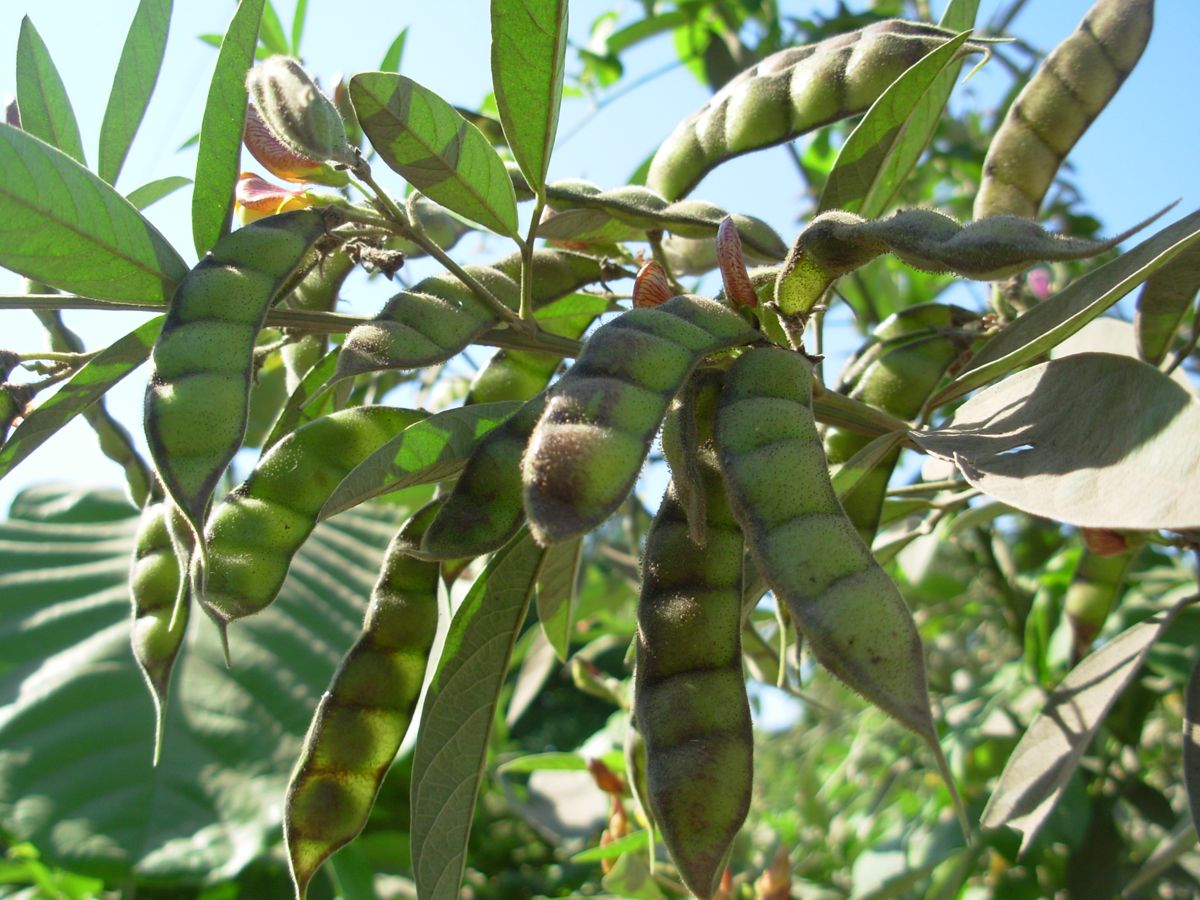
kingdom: Plantae
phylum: Tracheophyta
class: Magnoliopsida
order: Fabales
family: Fabaceae
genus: Cajanus
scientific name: Cajanus cajan
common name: Pigeonpea
